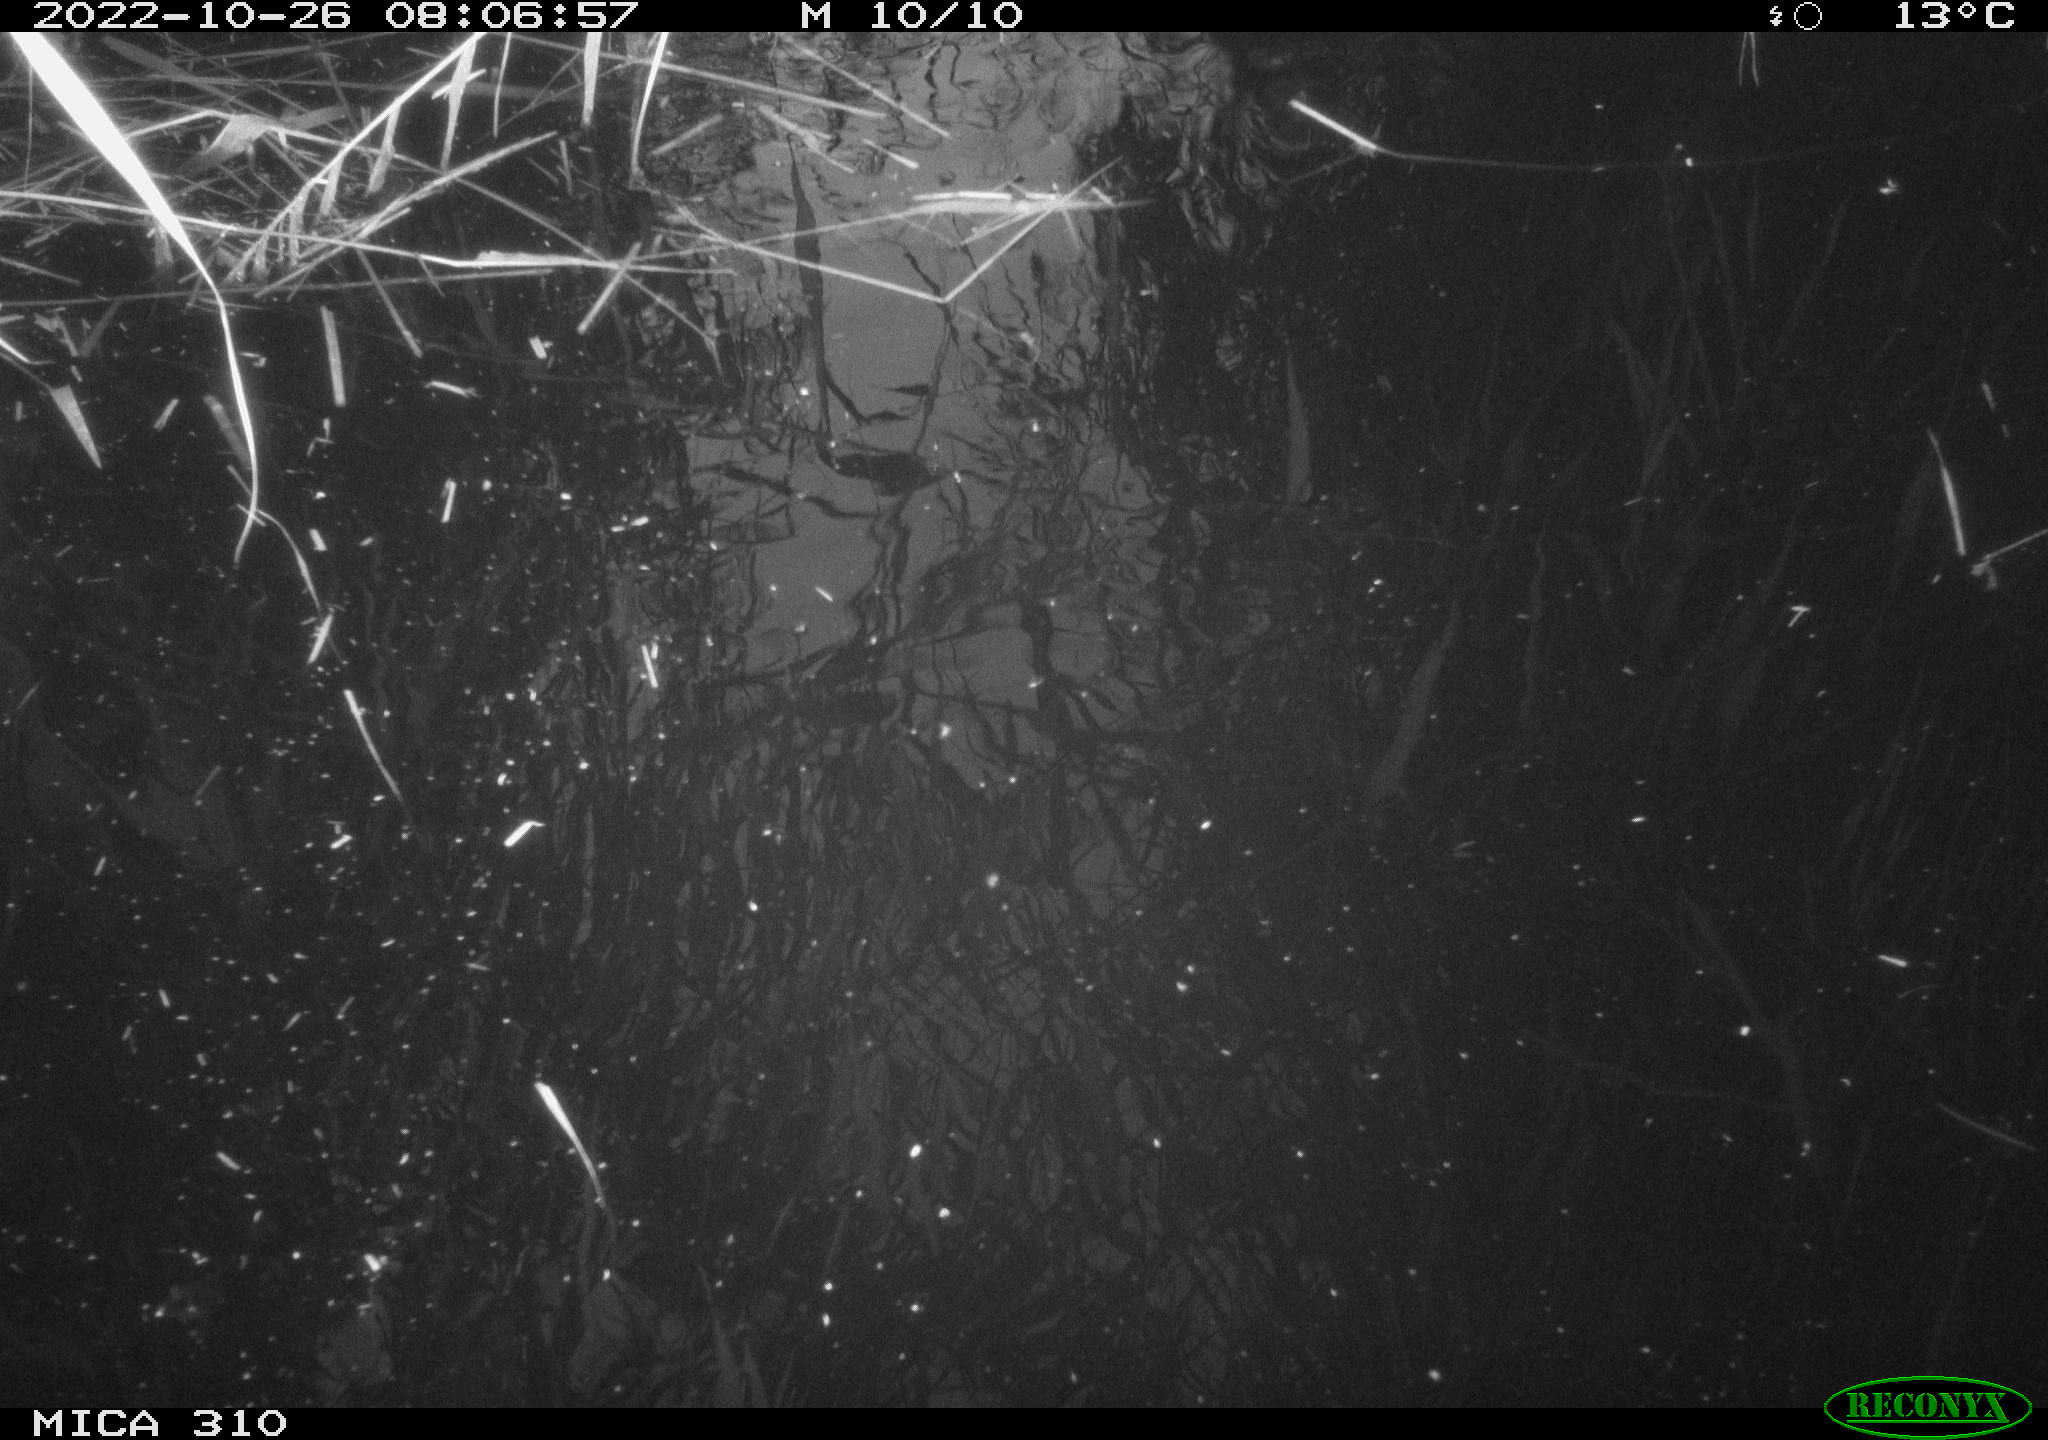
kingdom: Animalia
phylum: Chordata
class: Mammalia
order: Rodentia
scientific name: Rodentia
